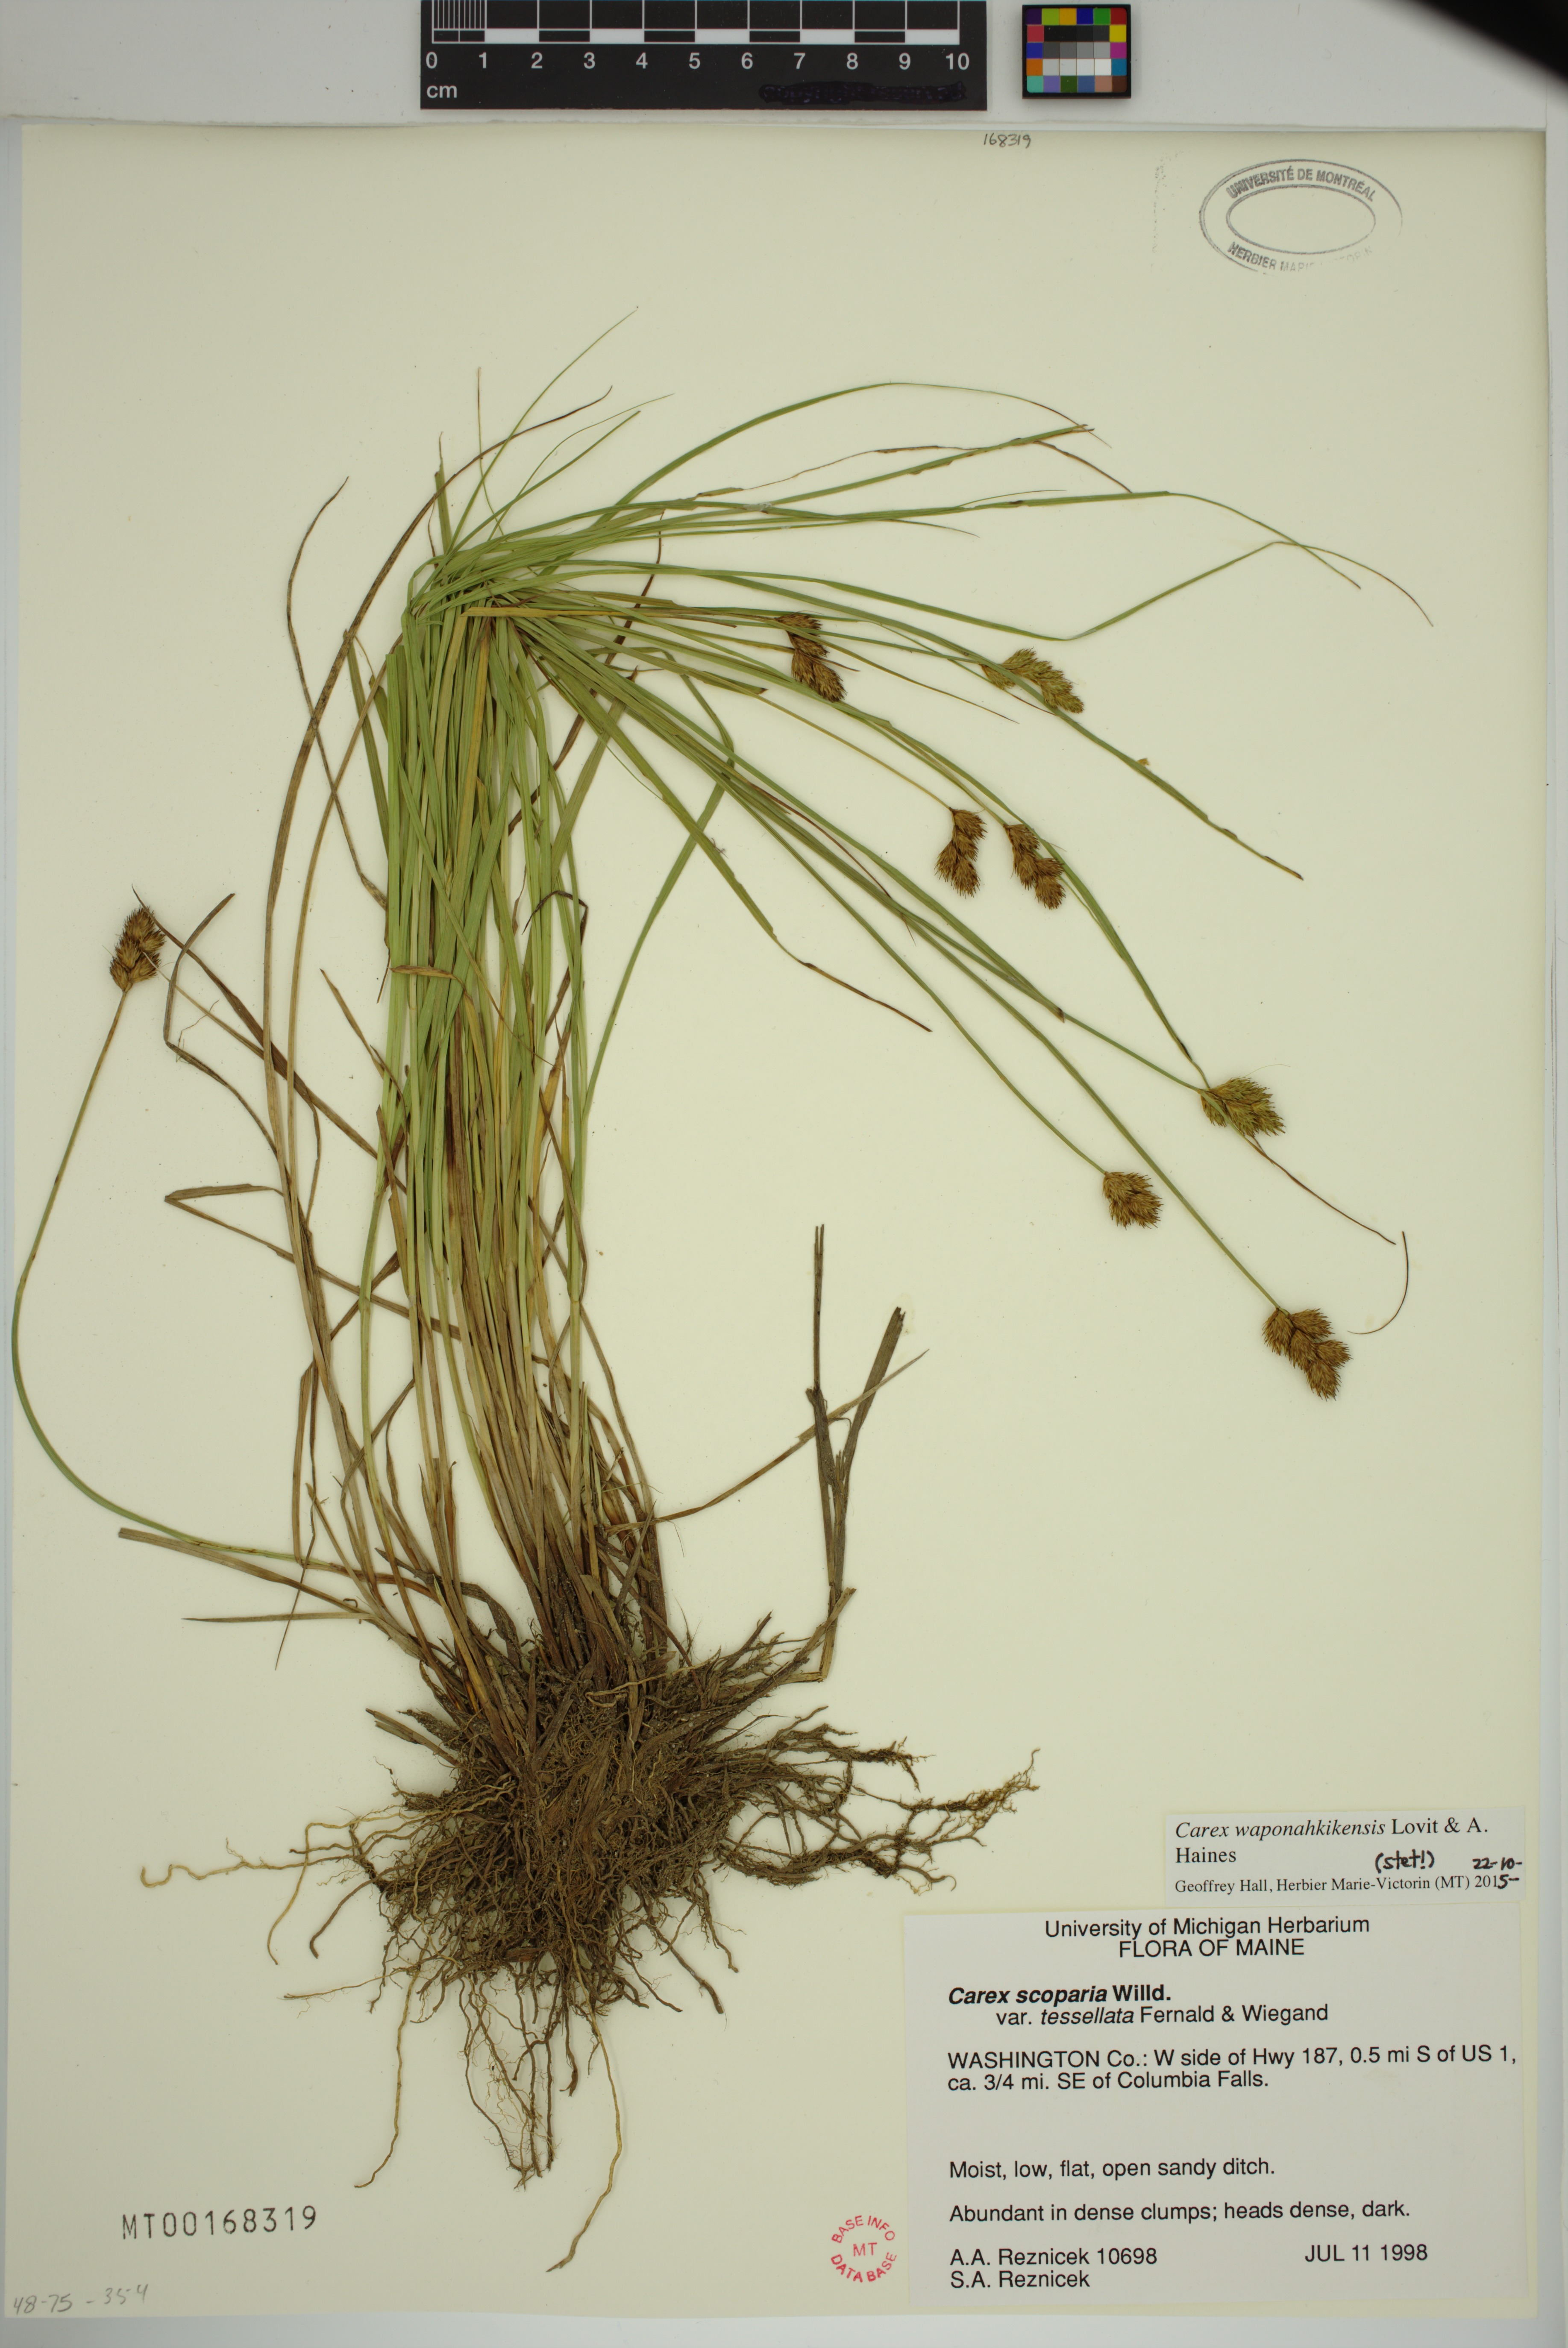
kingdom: Plantae
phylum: Tracheophyta
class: Liliopsida
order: Poales
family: Cyperaceae
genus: Carex
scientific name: Carex waponahkikensis
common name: Dawn-land sedge
